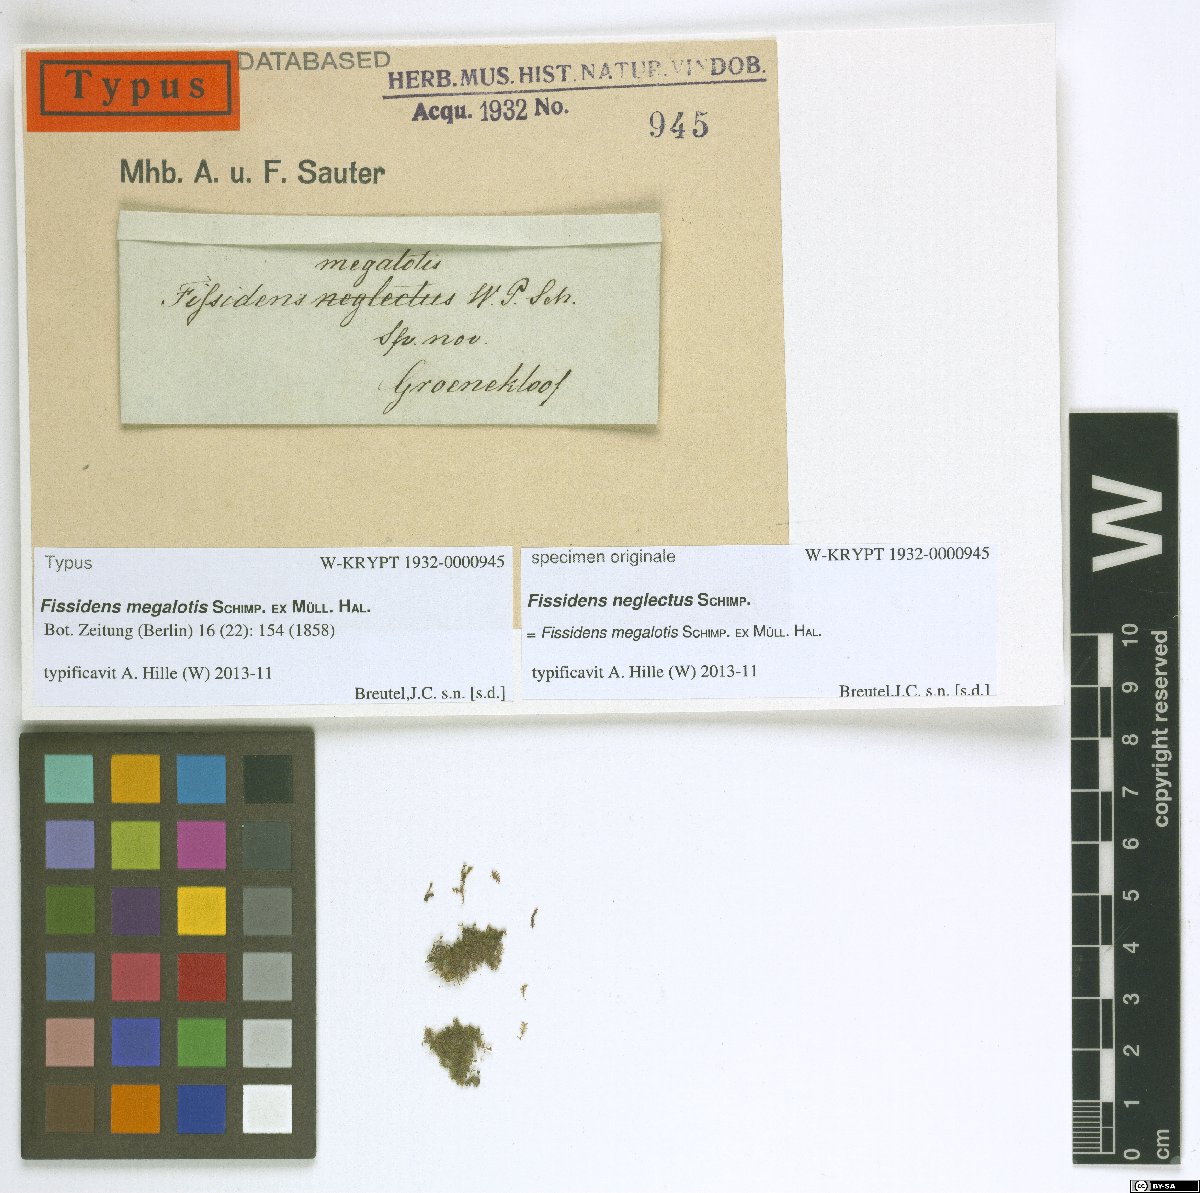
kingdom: Plantae
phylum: Bryophyta
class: Bryopsida
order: Dicranales
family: Fissidentaceae
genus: Fissidens
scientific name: Fissidens megalotis
